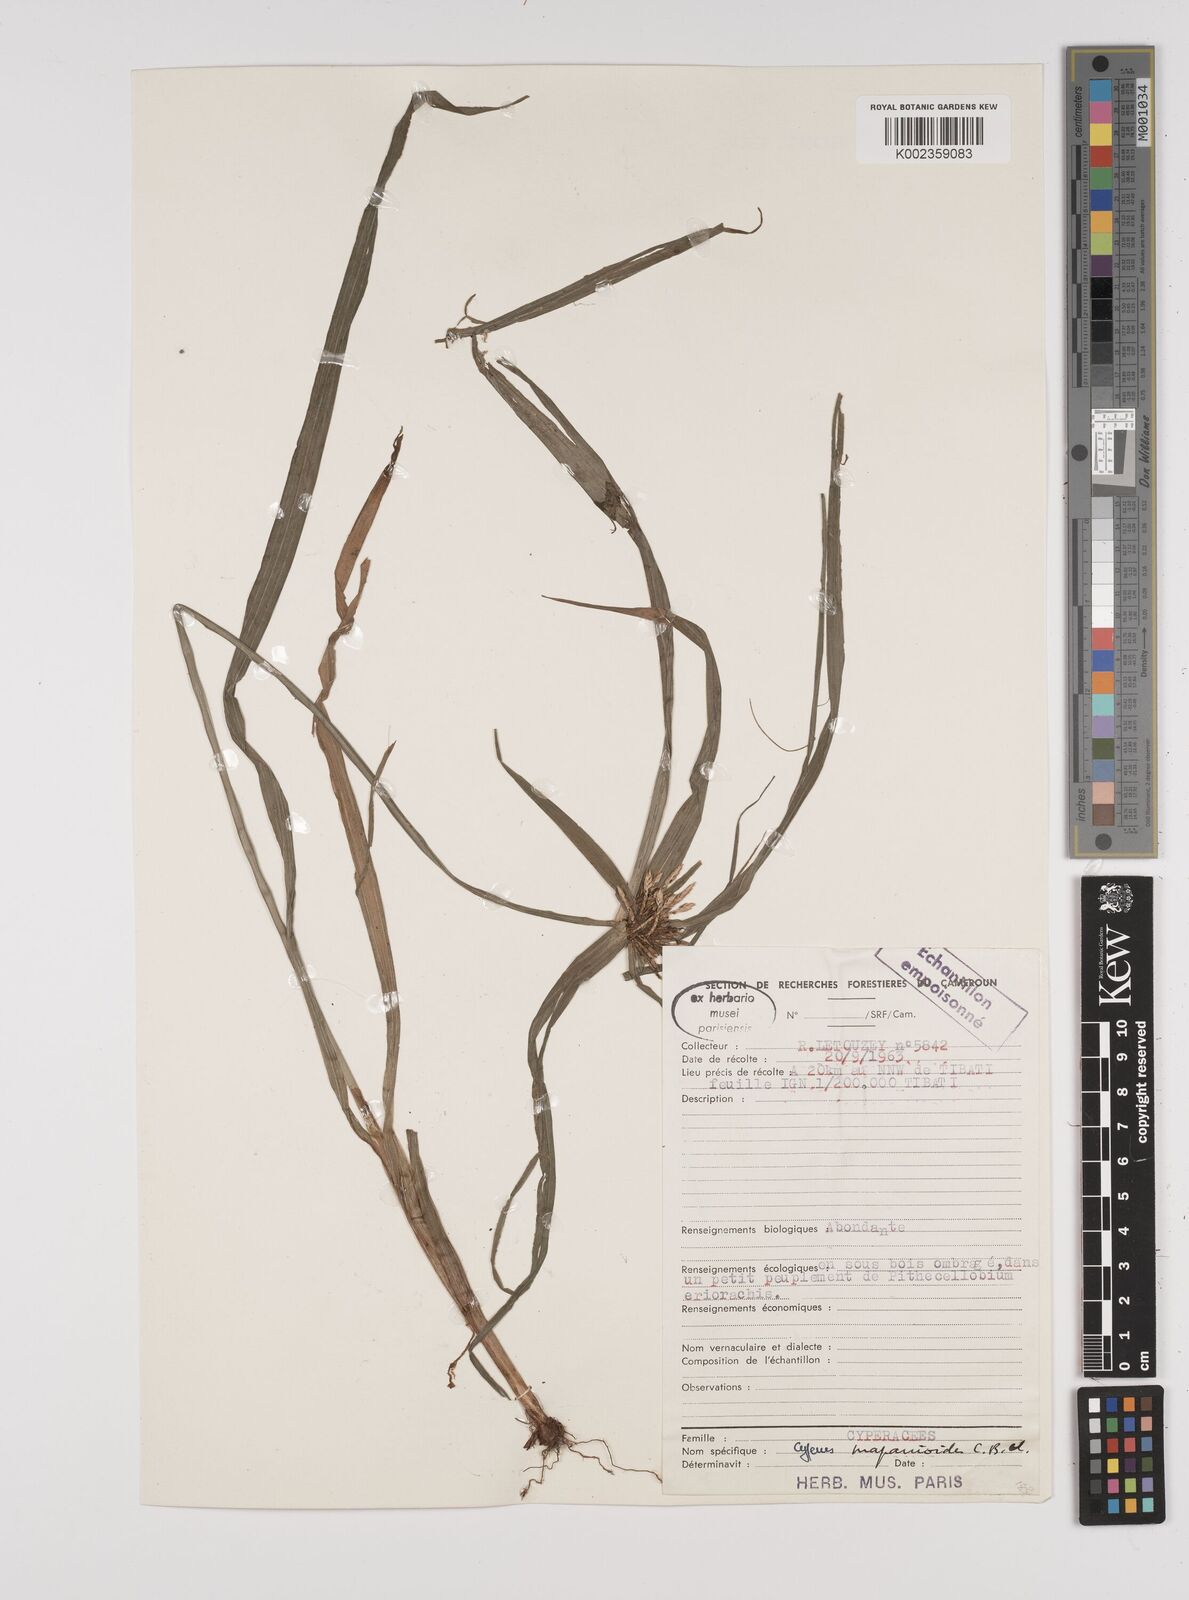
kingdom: Plantae
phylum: Tracheophyta
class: Liliopsida
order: Poales
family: Cyperaceae
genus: Cyperus
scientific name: Cyperus mapanioides
